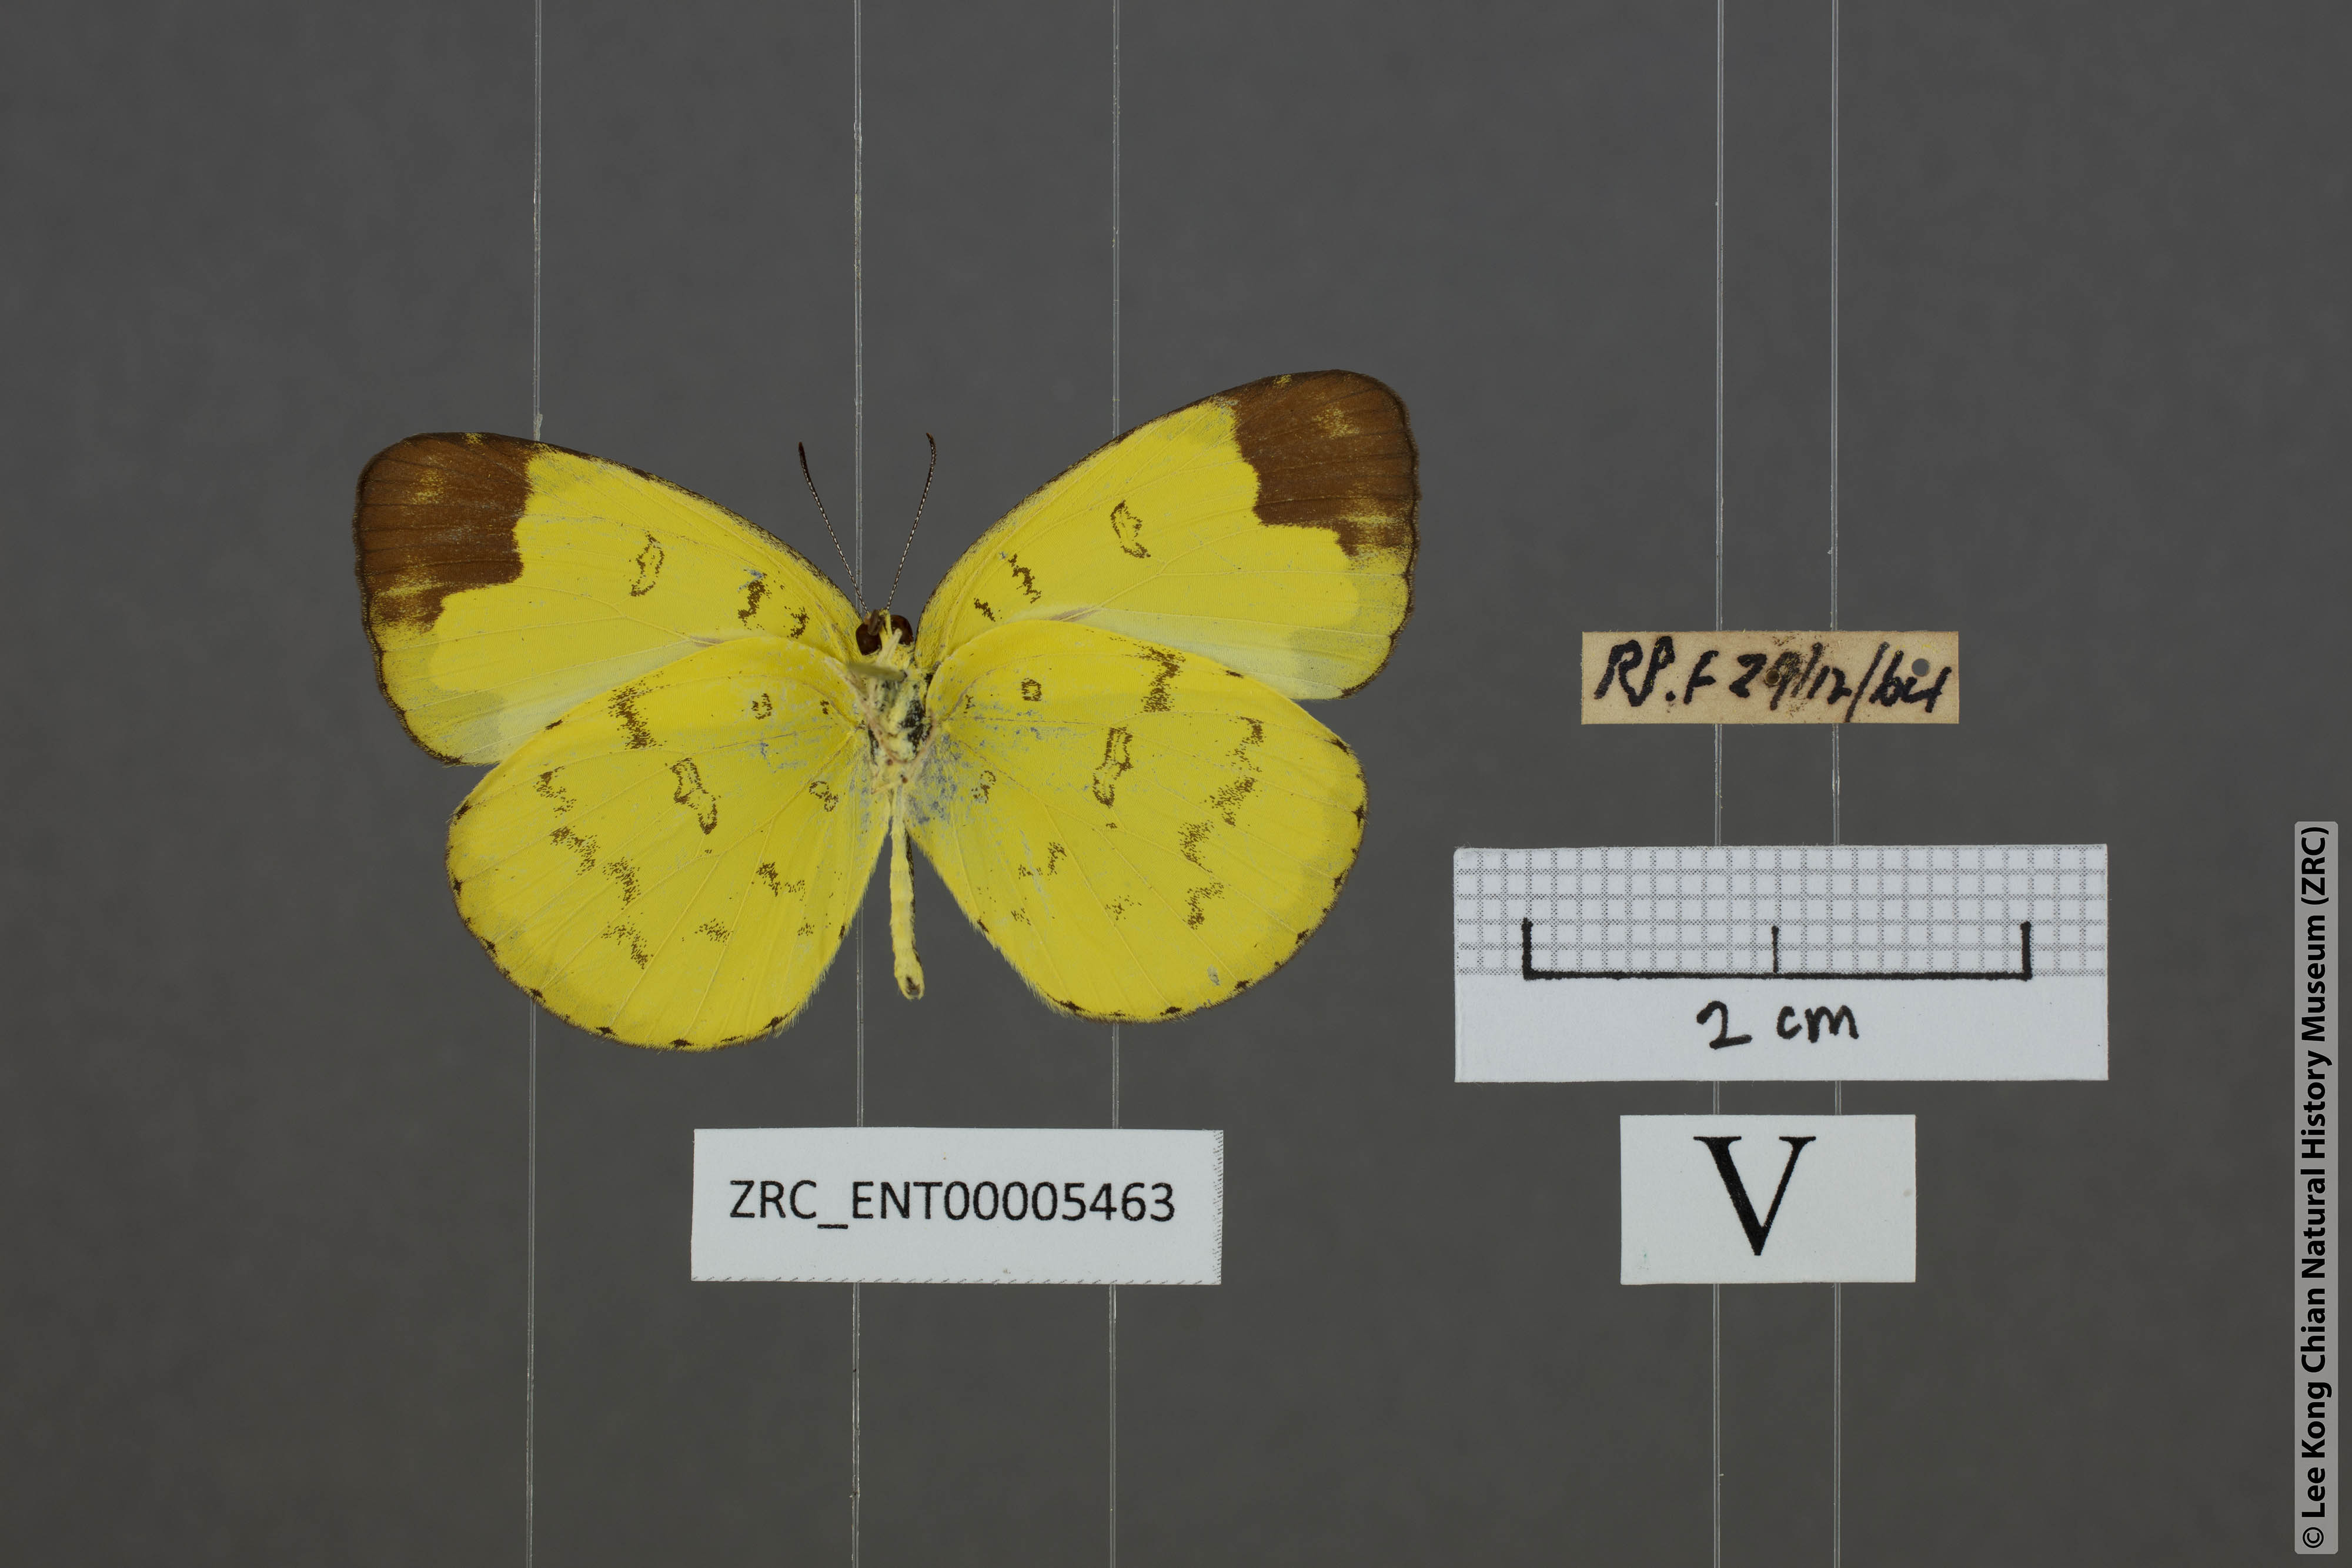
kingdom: Animalia
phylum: Arthropoda
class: Insecta
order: Lepidoptera
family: Pieridae
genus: Eurema
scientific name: Eurema sari
